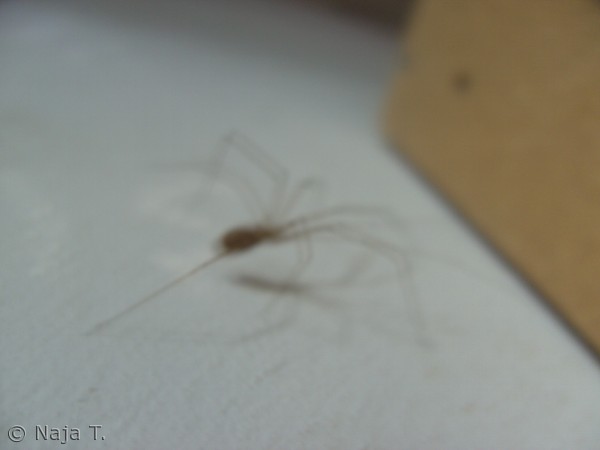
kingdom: Animalia
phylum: Arthropoda
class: Arachnida
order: Araneae
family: Pholcidae
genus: Pholcus
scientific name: Pholcus phalangioides
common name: Mejeredderkop
